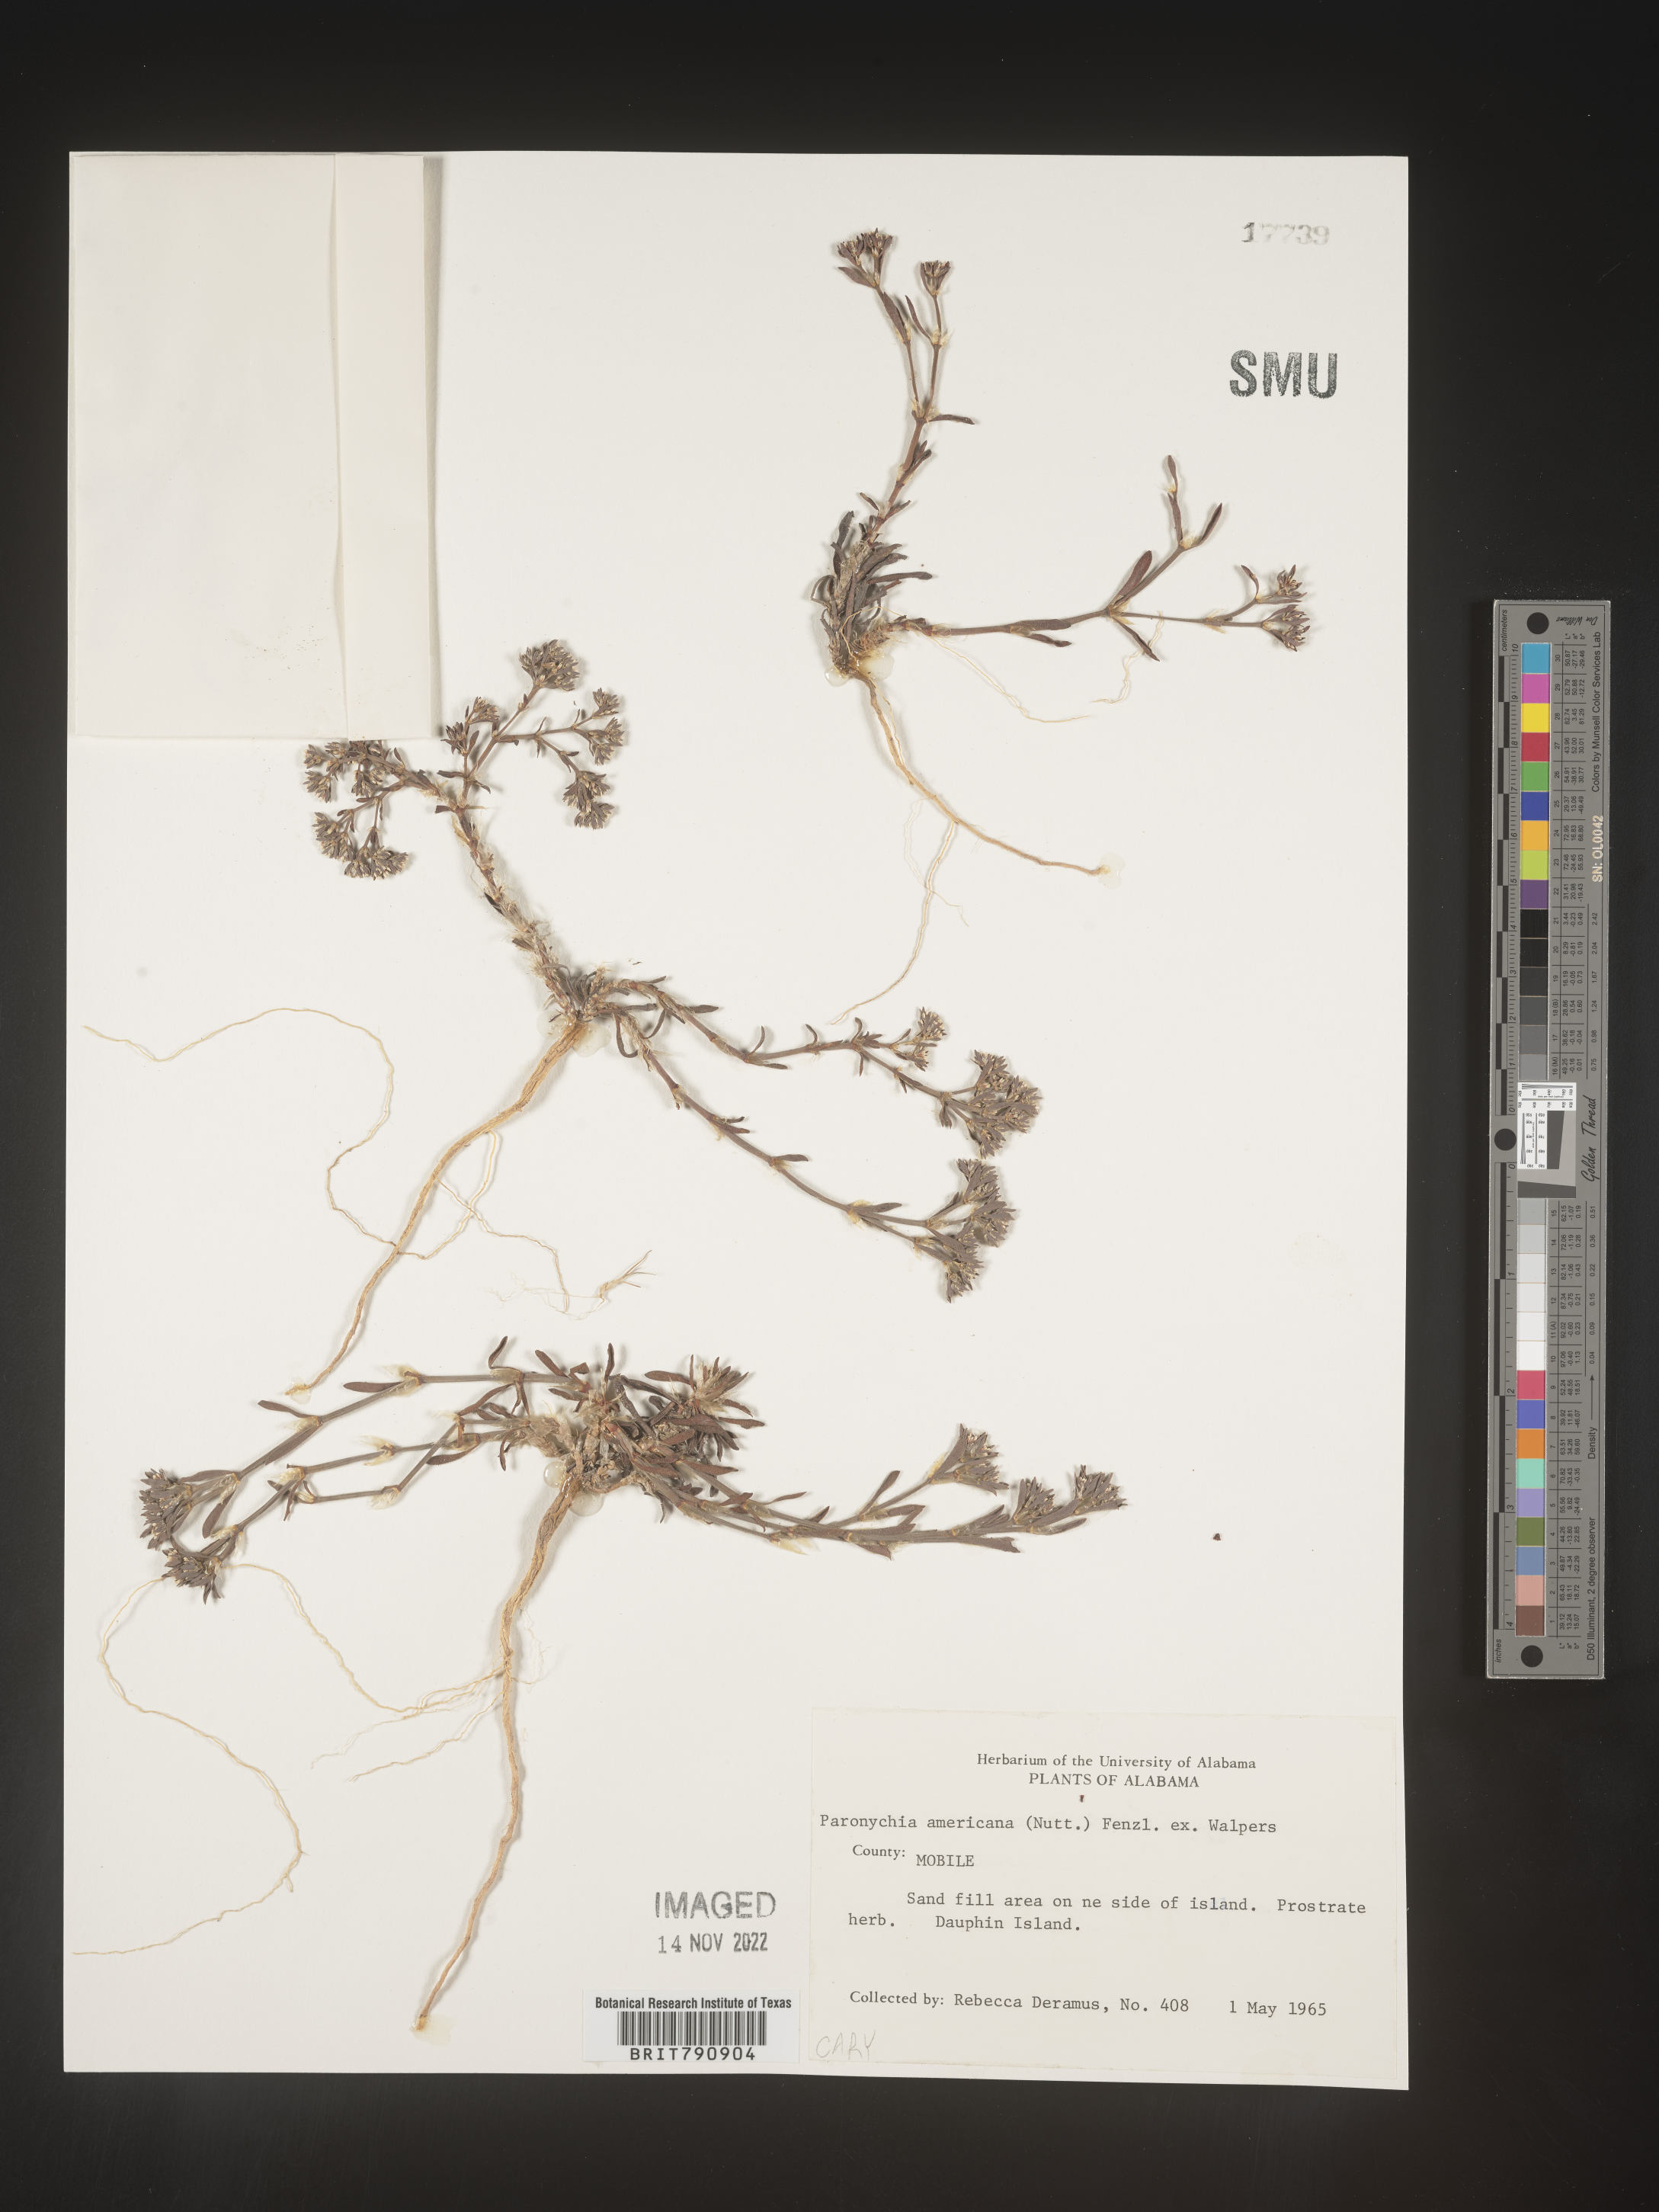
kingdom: Plantae
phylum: Tracheophyta
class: Magnoliopsida
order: Caryophyllales
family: Caryophyllaceae
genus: Paronychia
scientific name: Paronychia americana
